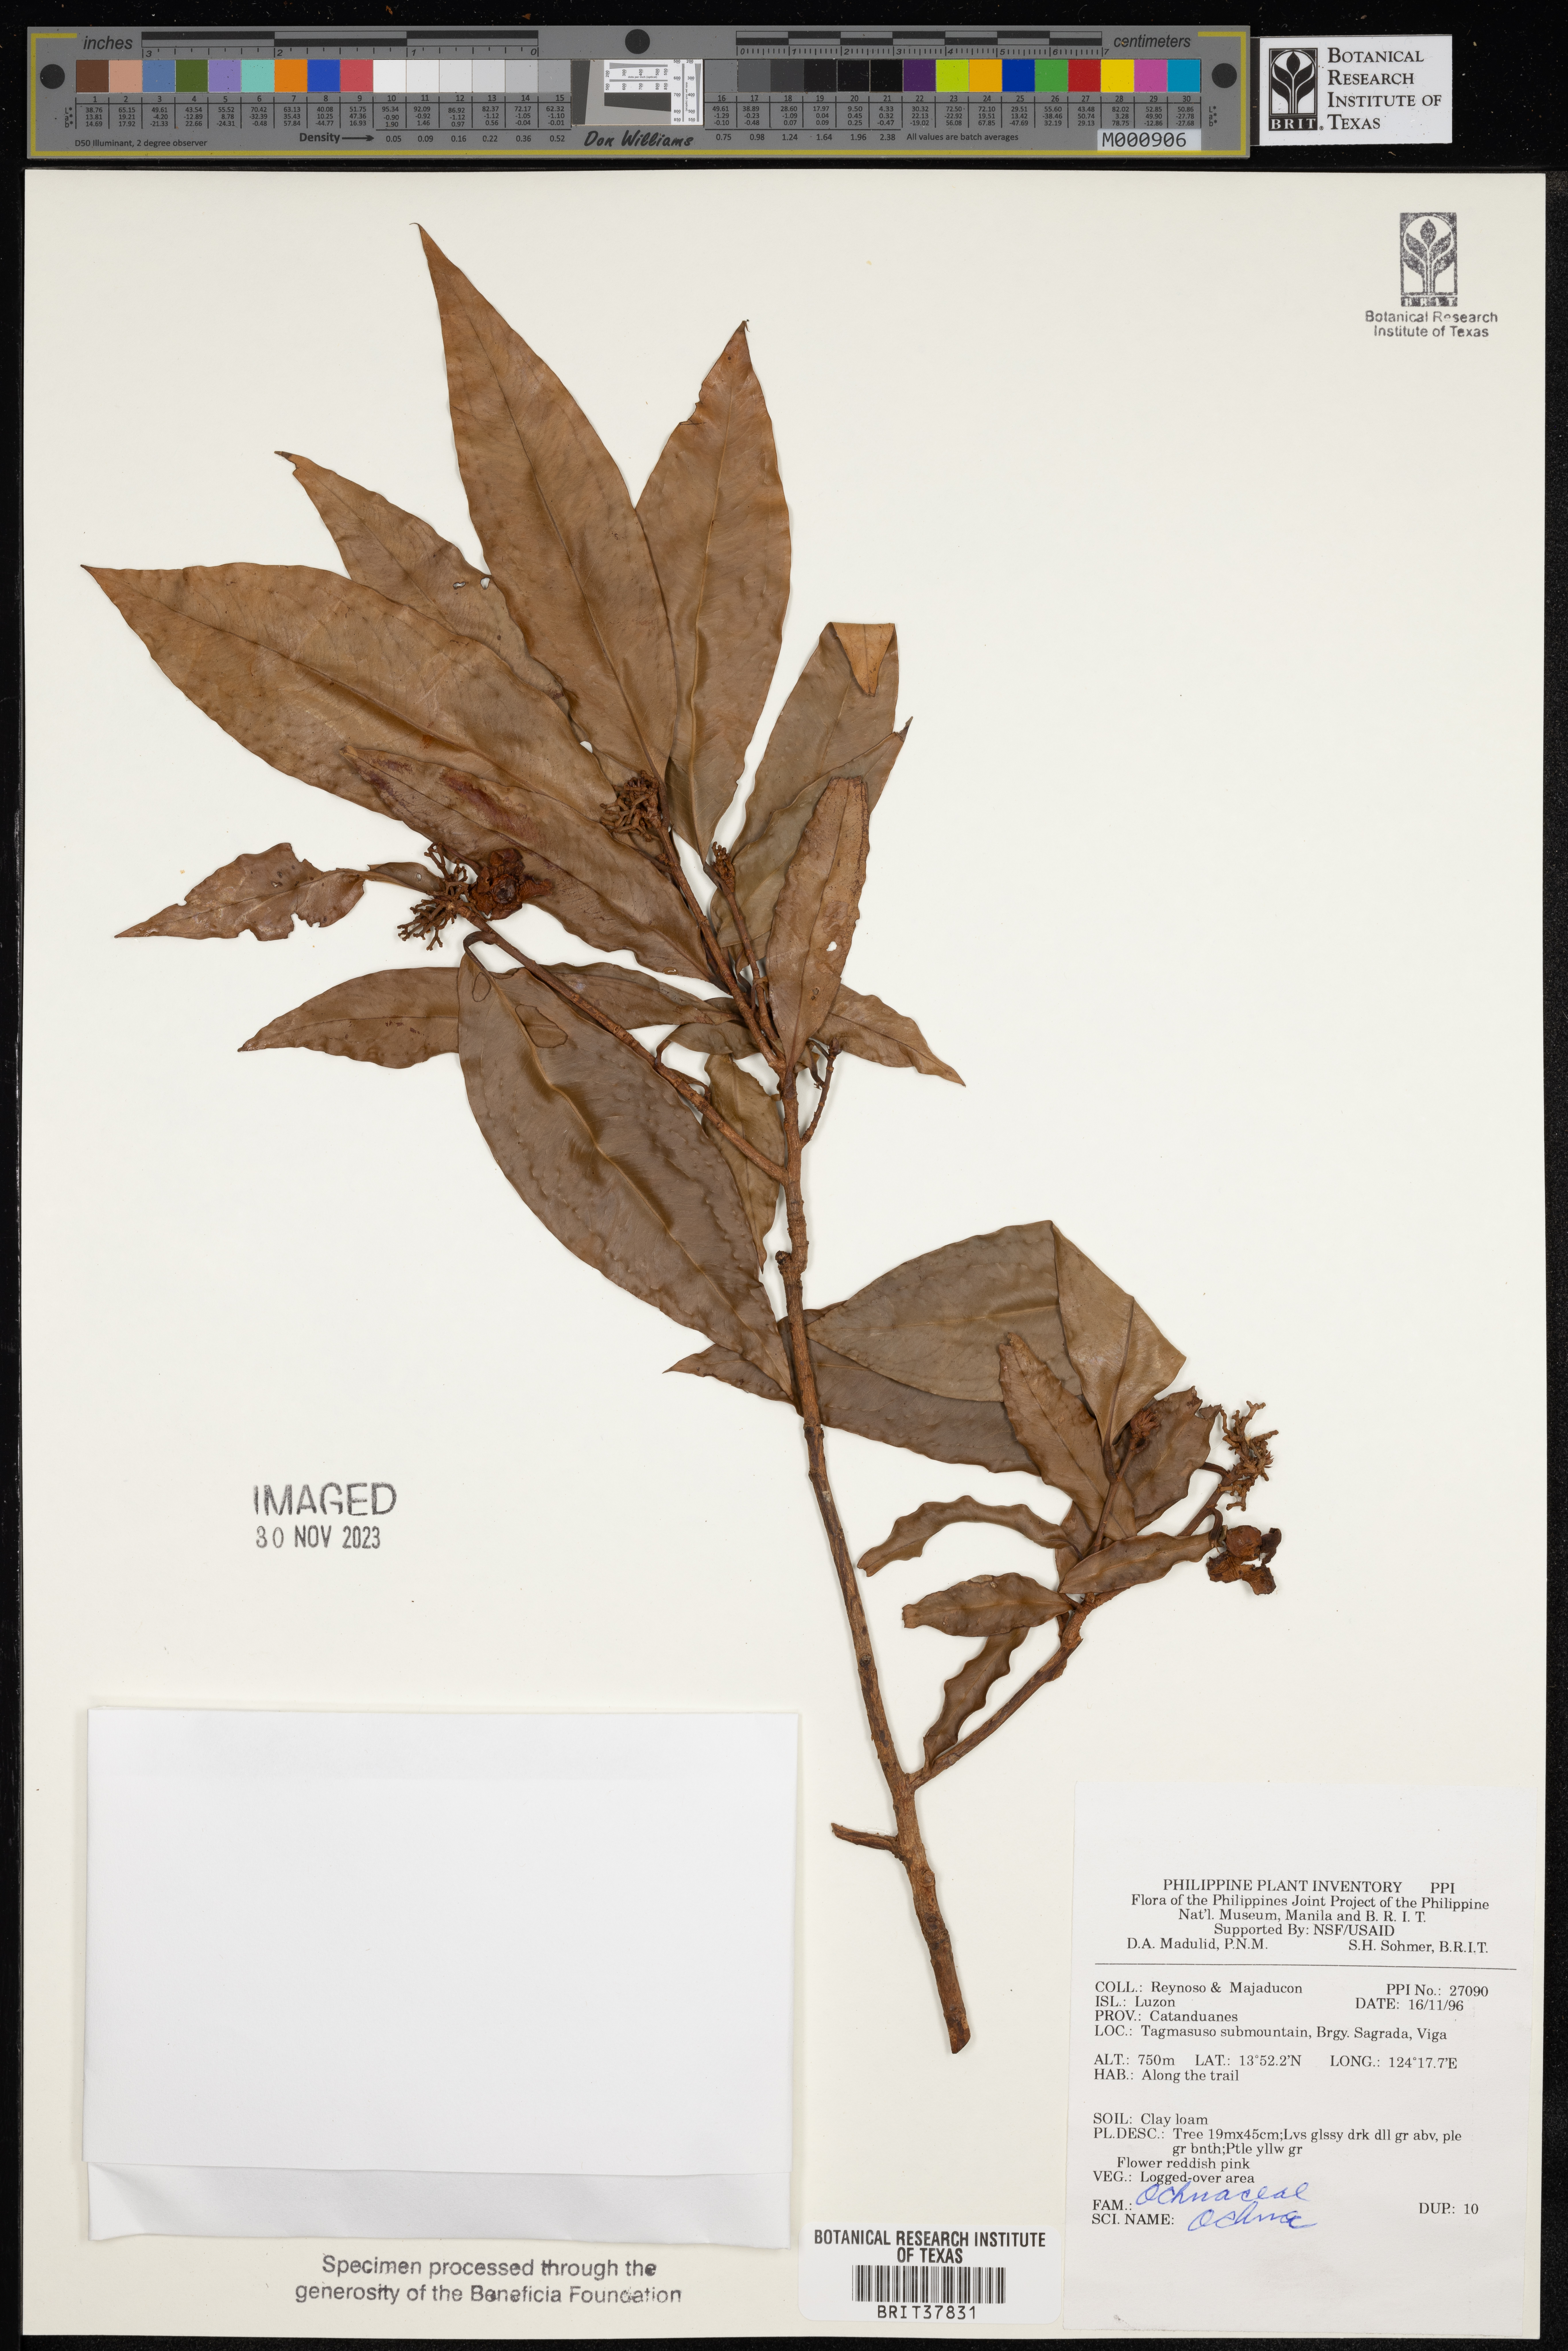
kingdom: Plantae
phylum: Tracheophyta
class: Magnoliopsida
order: Malpighiales
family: Ochnaceae
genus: Ochna
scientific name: Ochna
